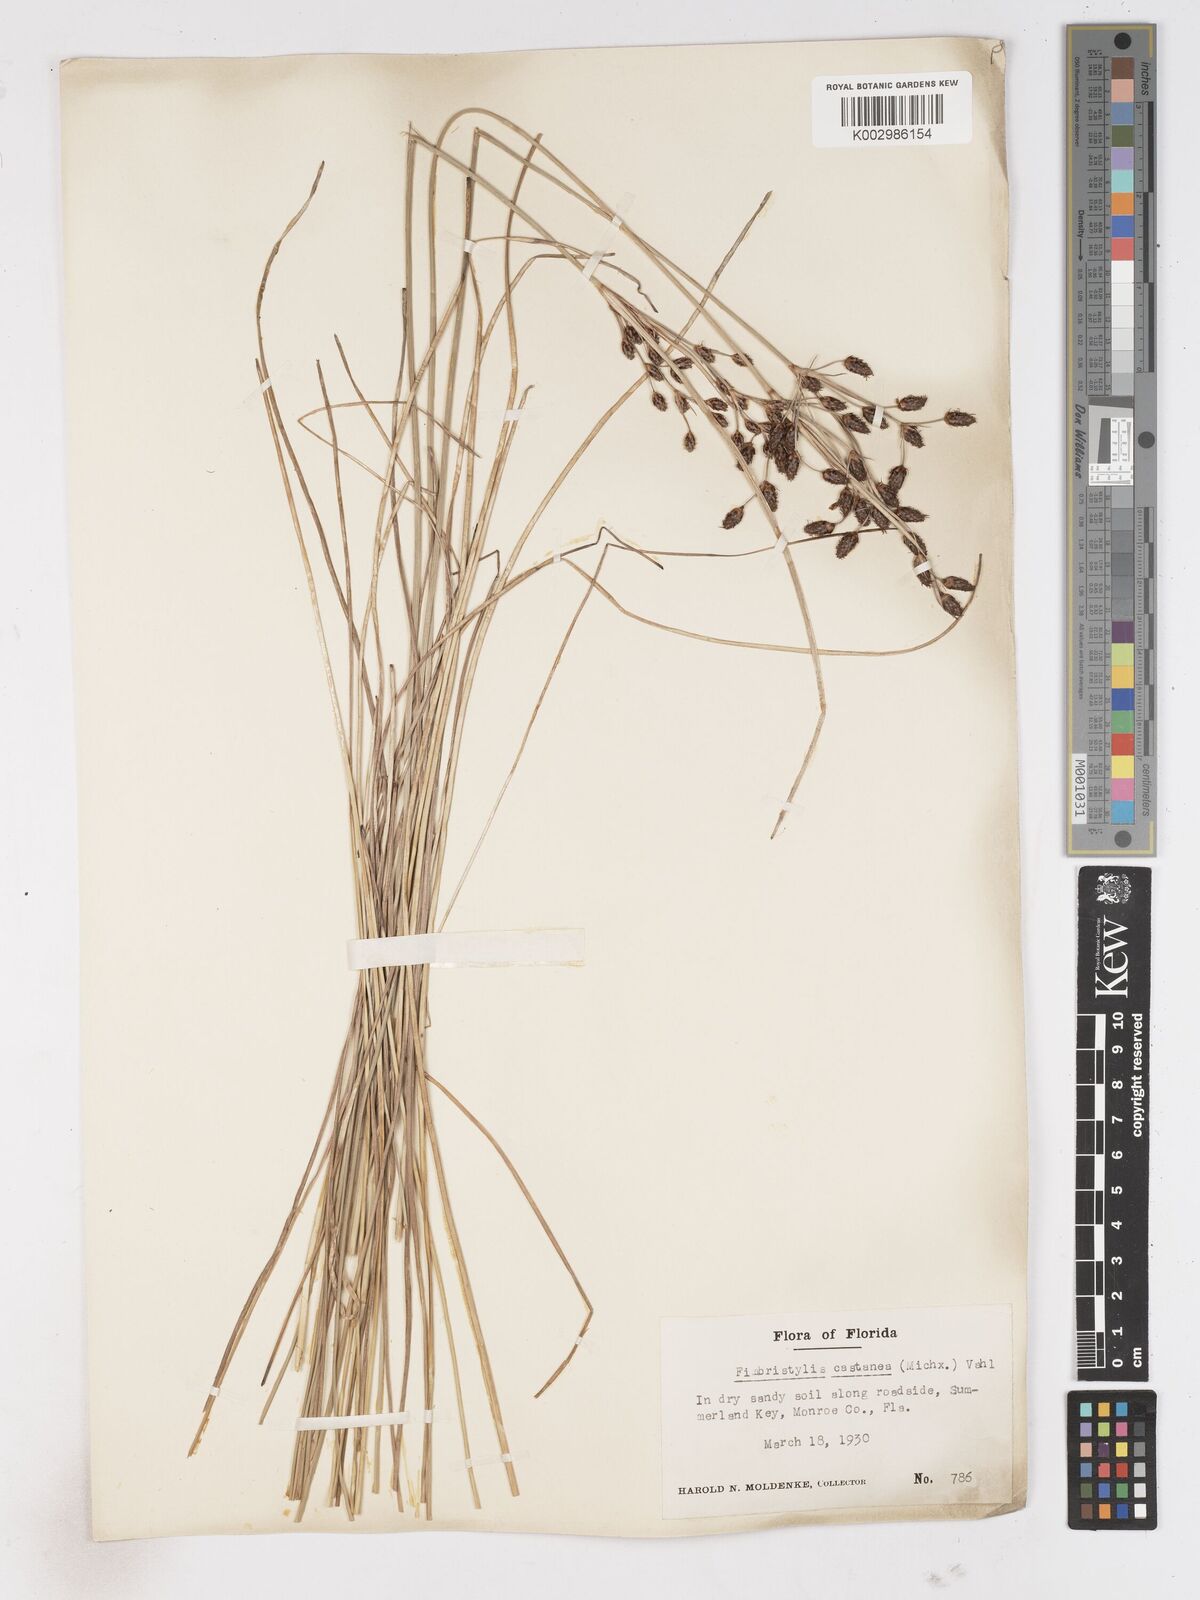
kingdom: Plantae
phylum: Tracheophyta
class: Liliopsida
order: Poales
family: Cyperaceae
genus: Fimbristylis
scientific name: Fimbristylis spadicea
